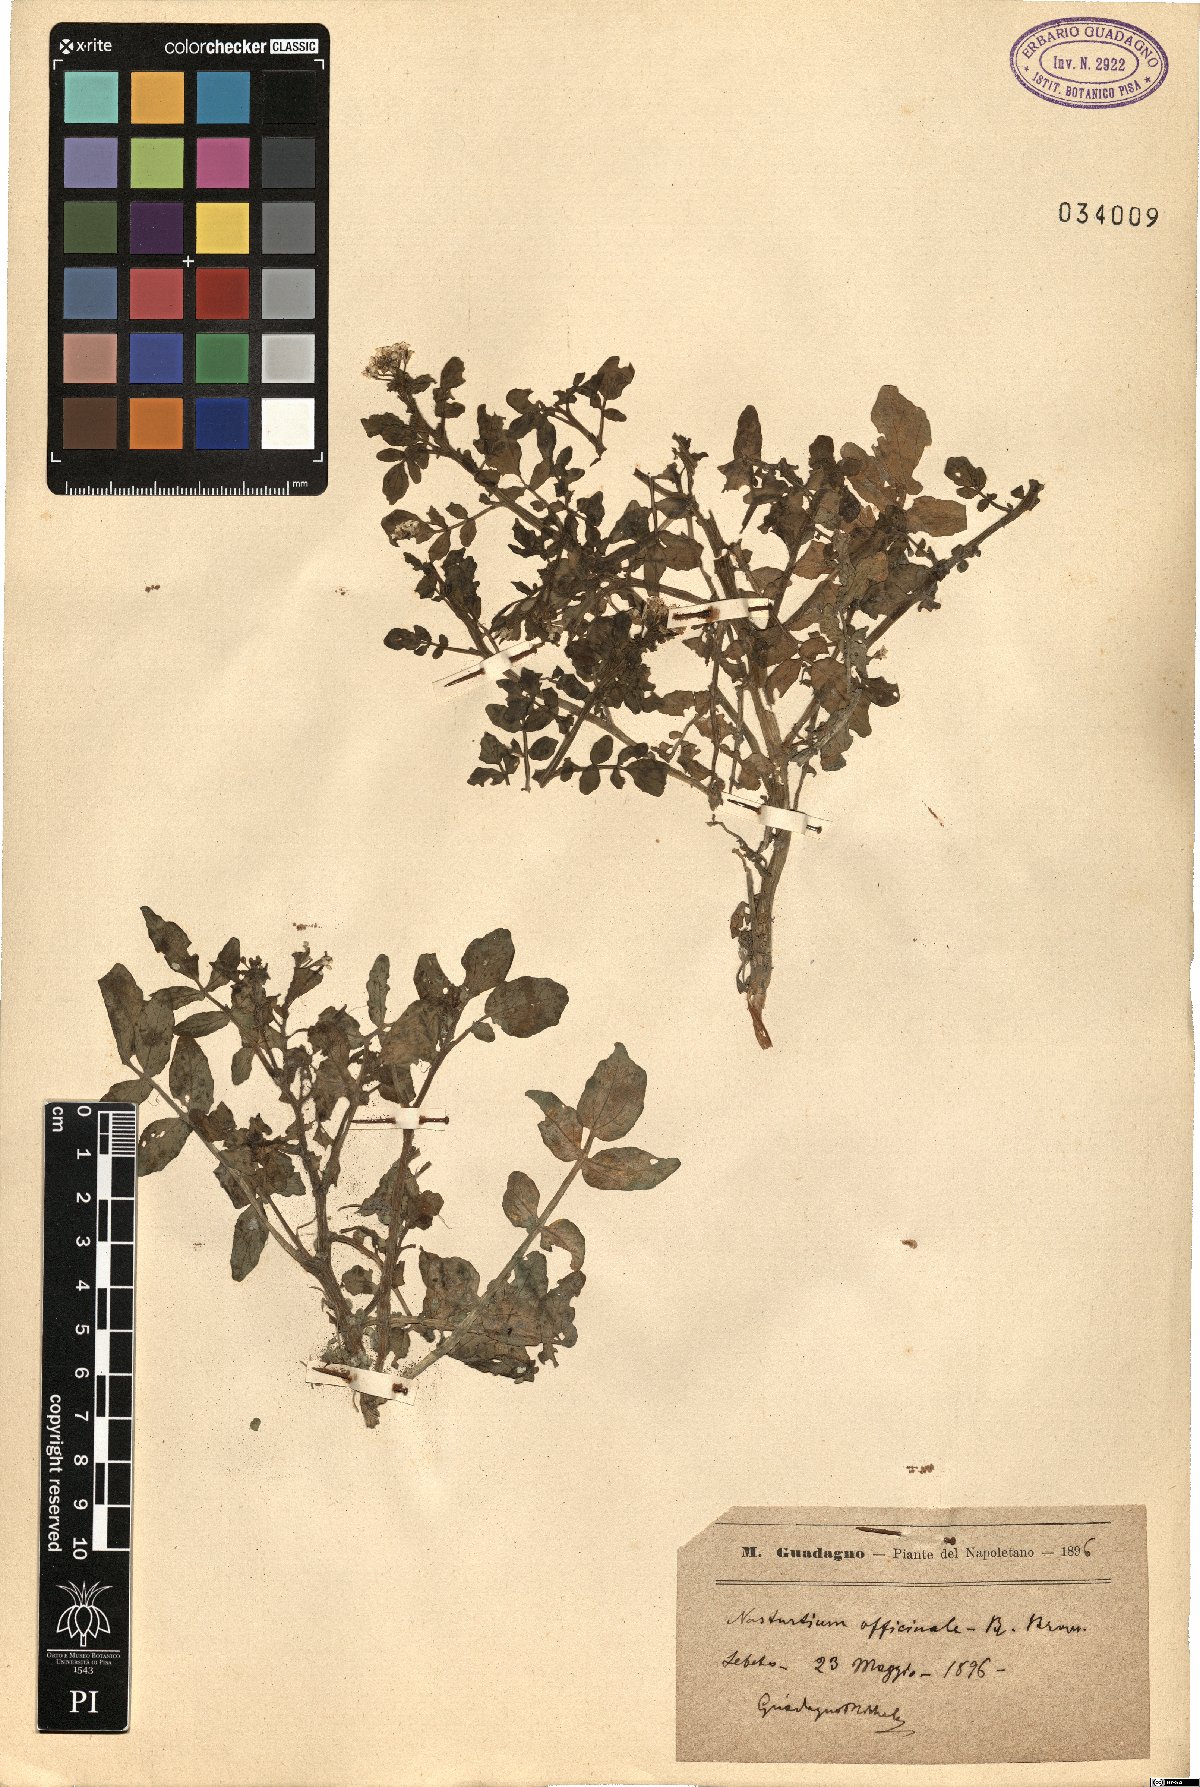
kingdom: Plantae
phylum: Tracheophyta
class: Magnoliopsida
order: Brassicales
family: Brassicaceae
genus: Nasturtium
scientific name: Nasturtium officinale
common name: Watercress
